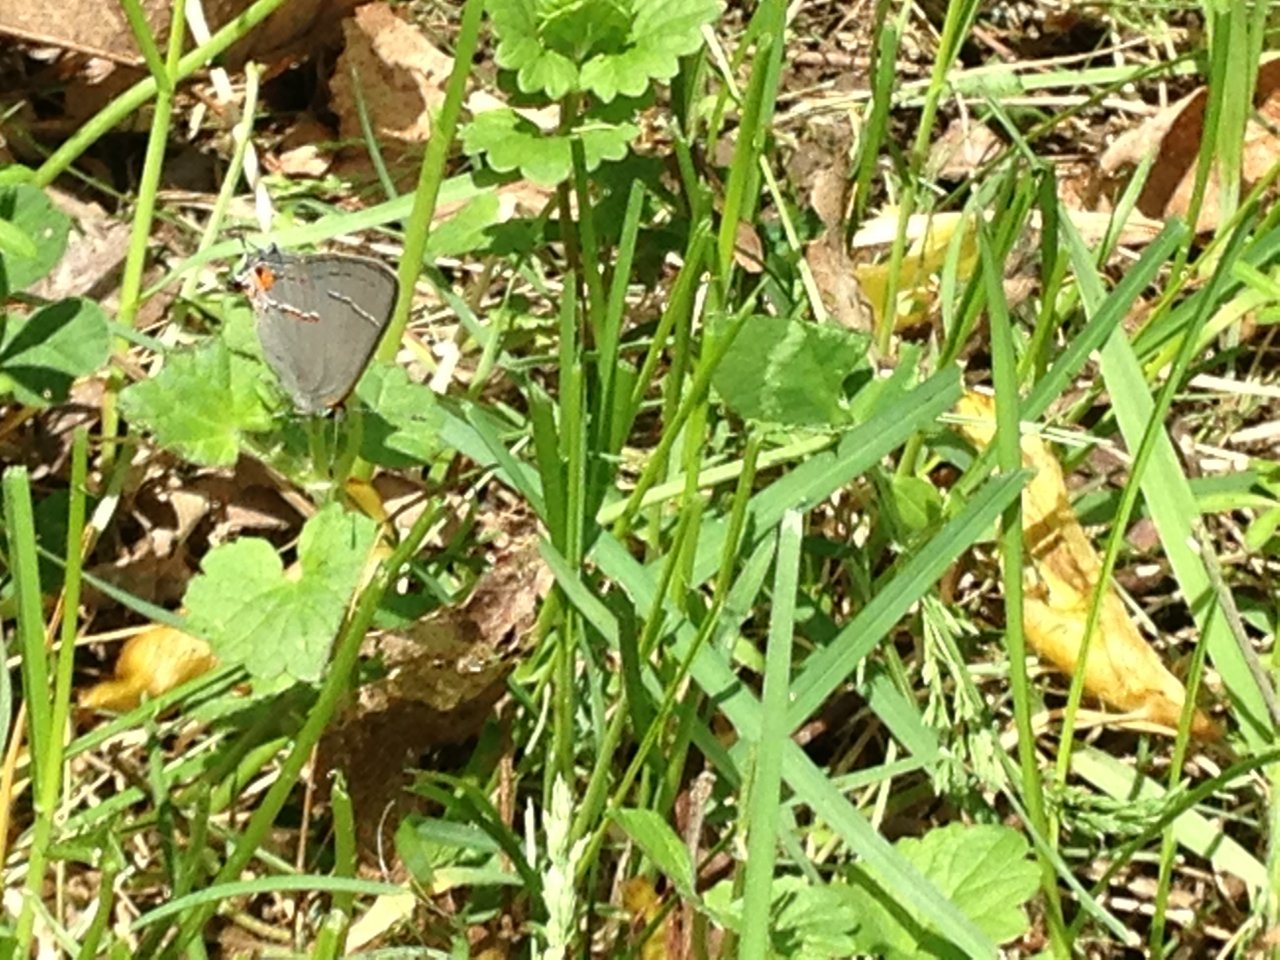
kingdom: Animalia
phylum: Arthropoda
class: Insecta
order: Lepidoptera
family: Lycaenidae
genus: Strymon
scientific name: Strymon melinus
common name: Gray Hairstreak
